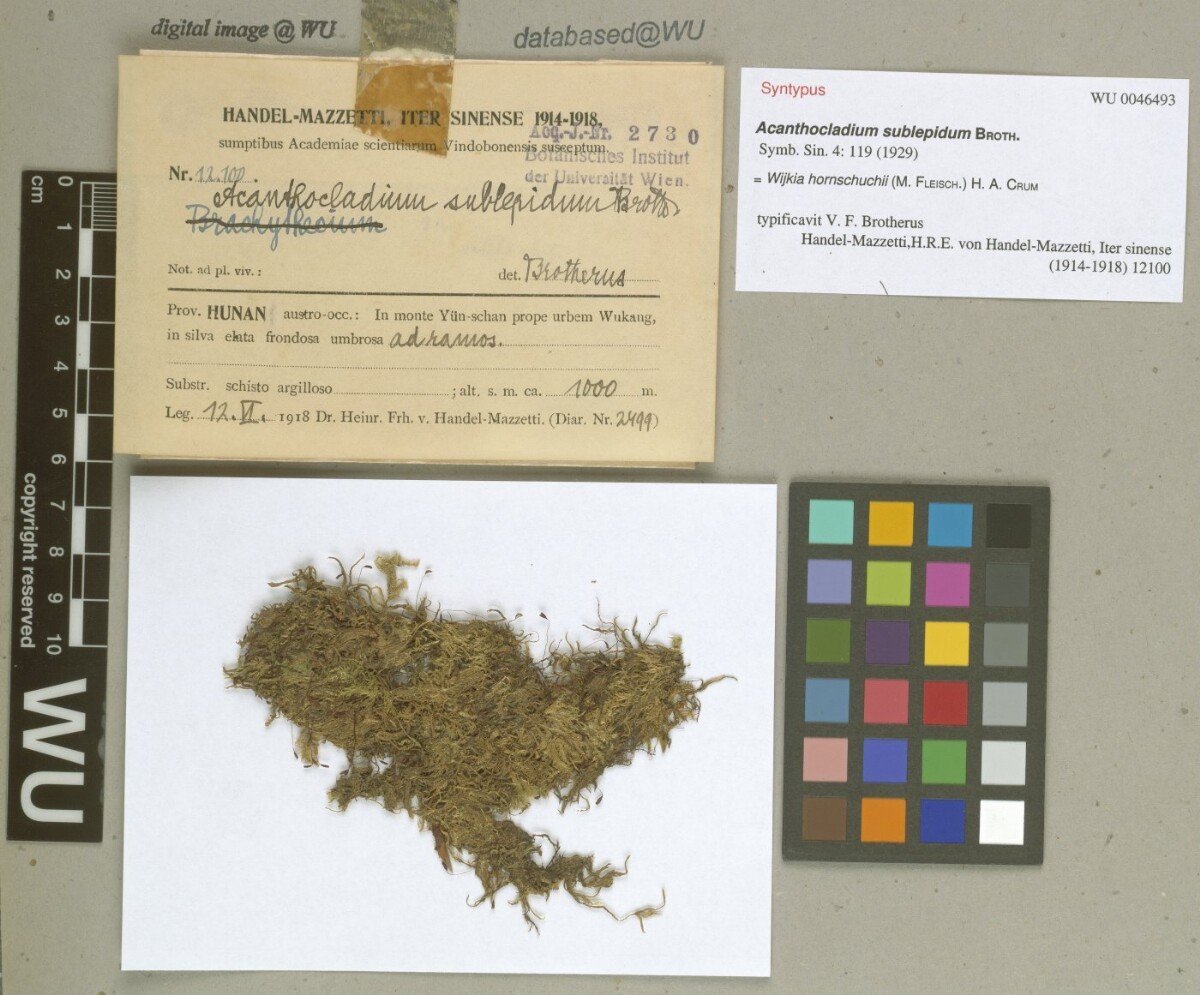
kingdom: Plantae
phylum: Bryophyta
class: Bryopsida
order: Hypnales
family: Pylaisiadelphaceae
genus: Wijkia
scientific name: Wijkia hornschuchii
